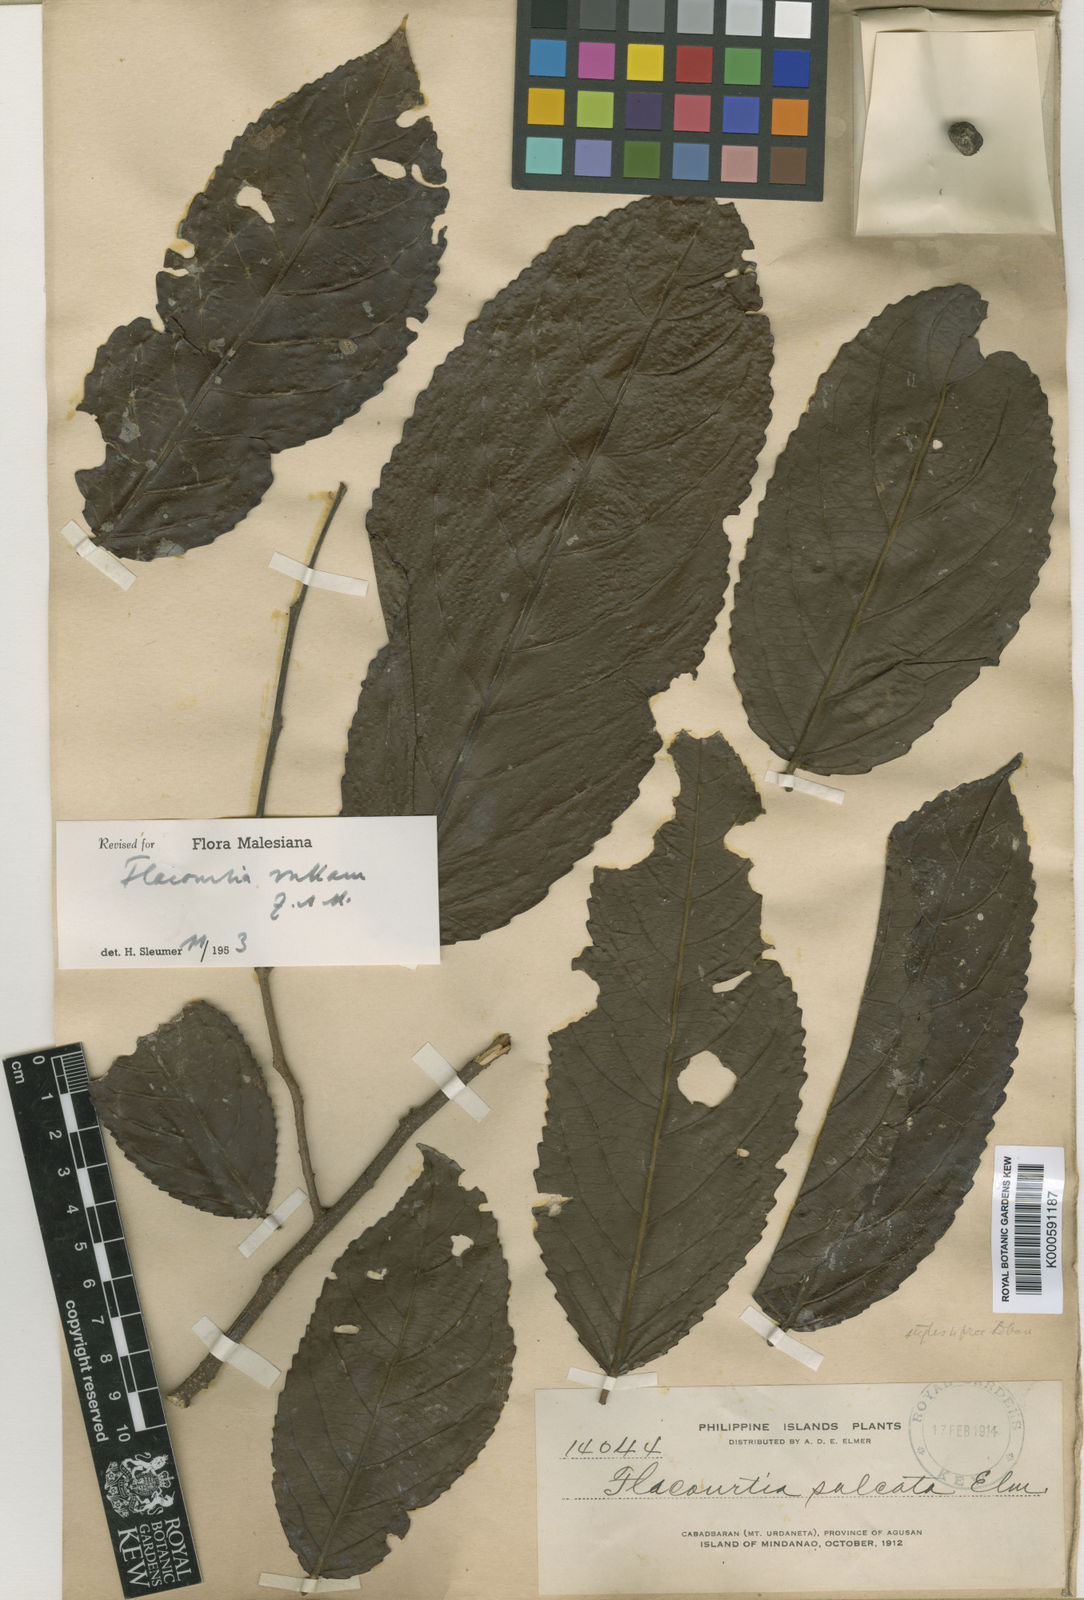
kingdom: Plantae
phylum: Tracheophyta
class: Magnoliopsida
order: Malpighiales
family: Salicaceae
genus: Flacourtia
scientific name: Flacourtia rukam
